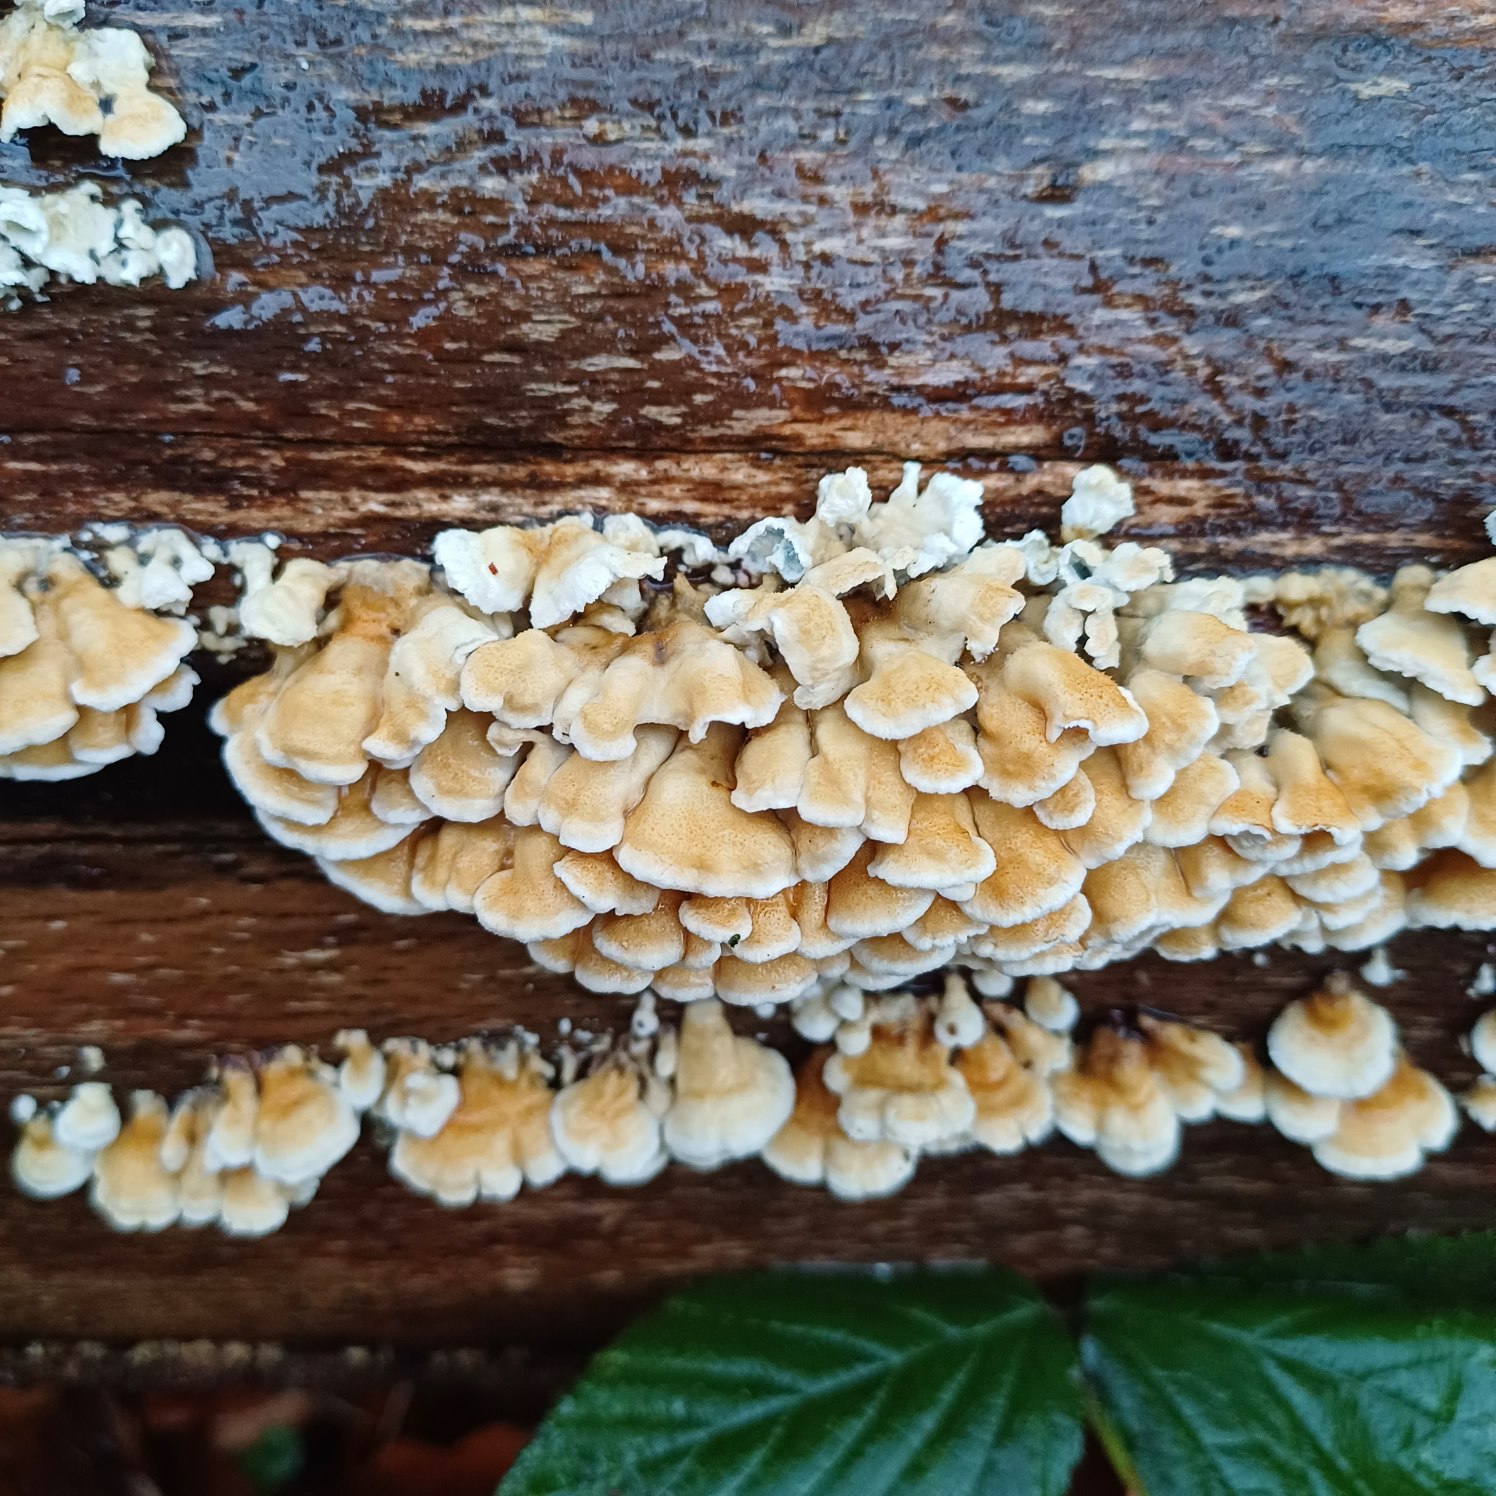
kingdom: Fungi
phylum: Basidiomycota
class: Agaricomycetes
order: Amylocorticiales
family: Amylocorticiaceae
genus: Plicaturopsis
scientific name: Plicaturopsis crispa
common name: Krusblad
